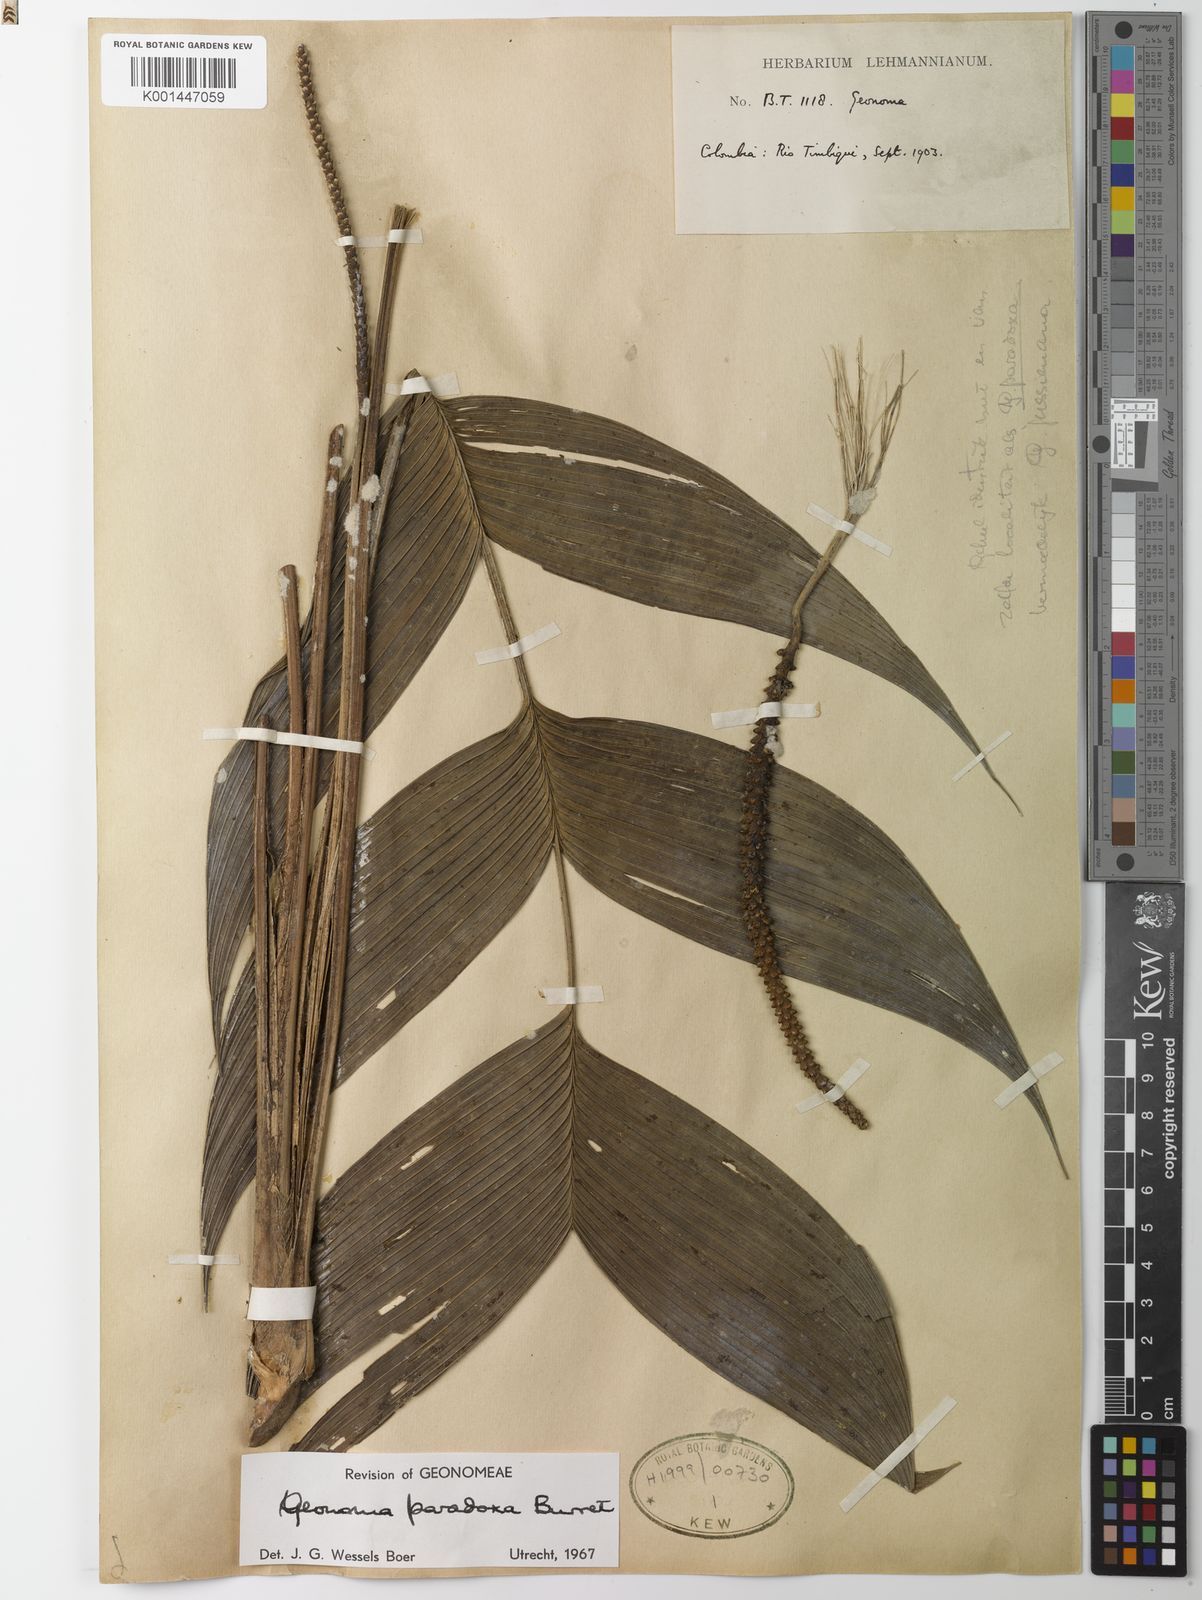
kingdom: Plantae
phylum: Tracheophyta
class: Liliopsida
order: Arecales
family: Arecaceae
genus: Geonoma
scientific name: Geonoma paradoxa
